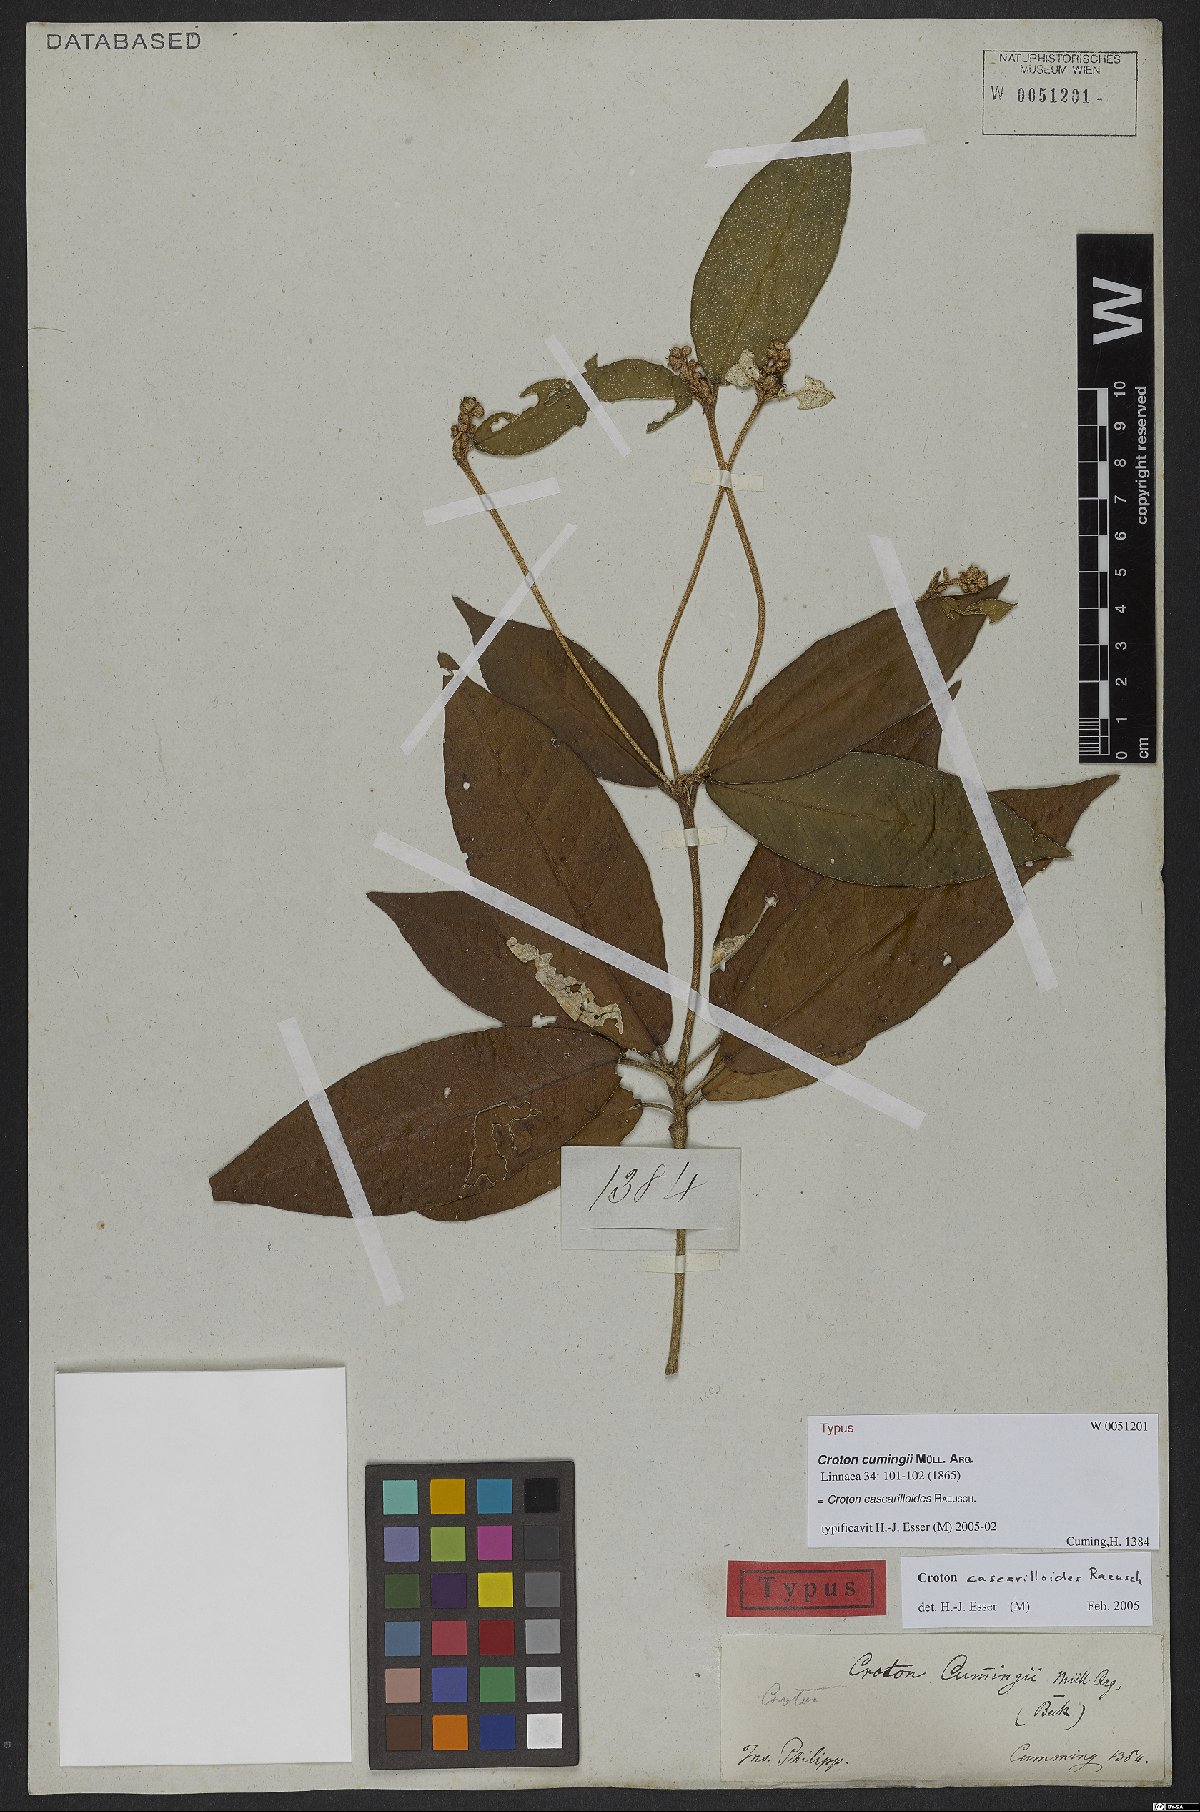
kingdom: Plantae
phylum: Tracheophyta
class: Magnoliopsida
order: Malpighiales
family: Euphorbiaceae
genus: Croton
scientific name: Croton cascarilloides
